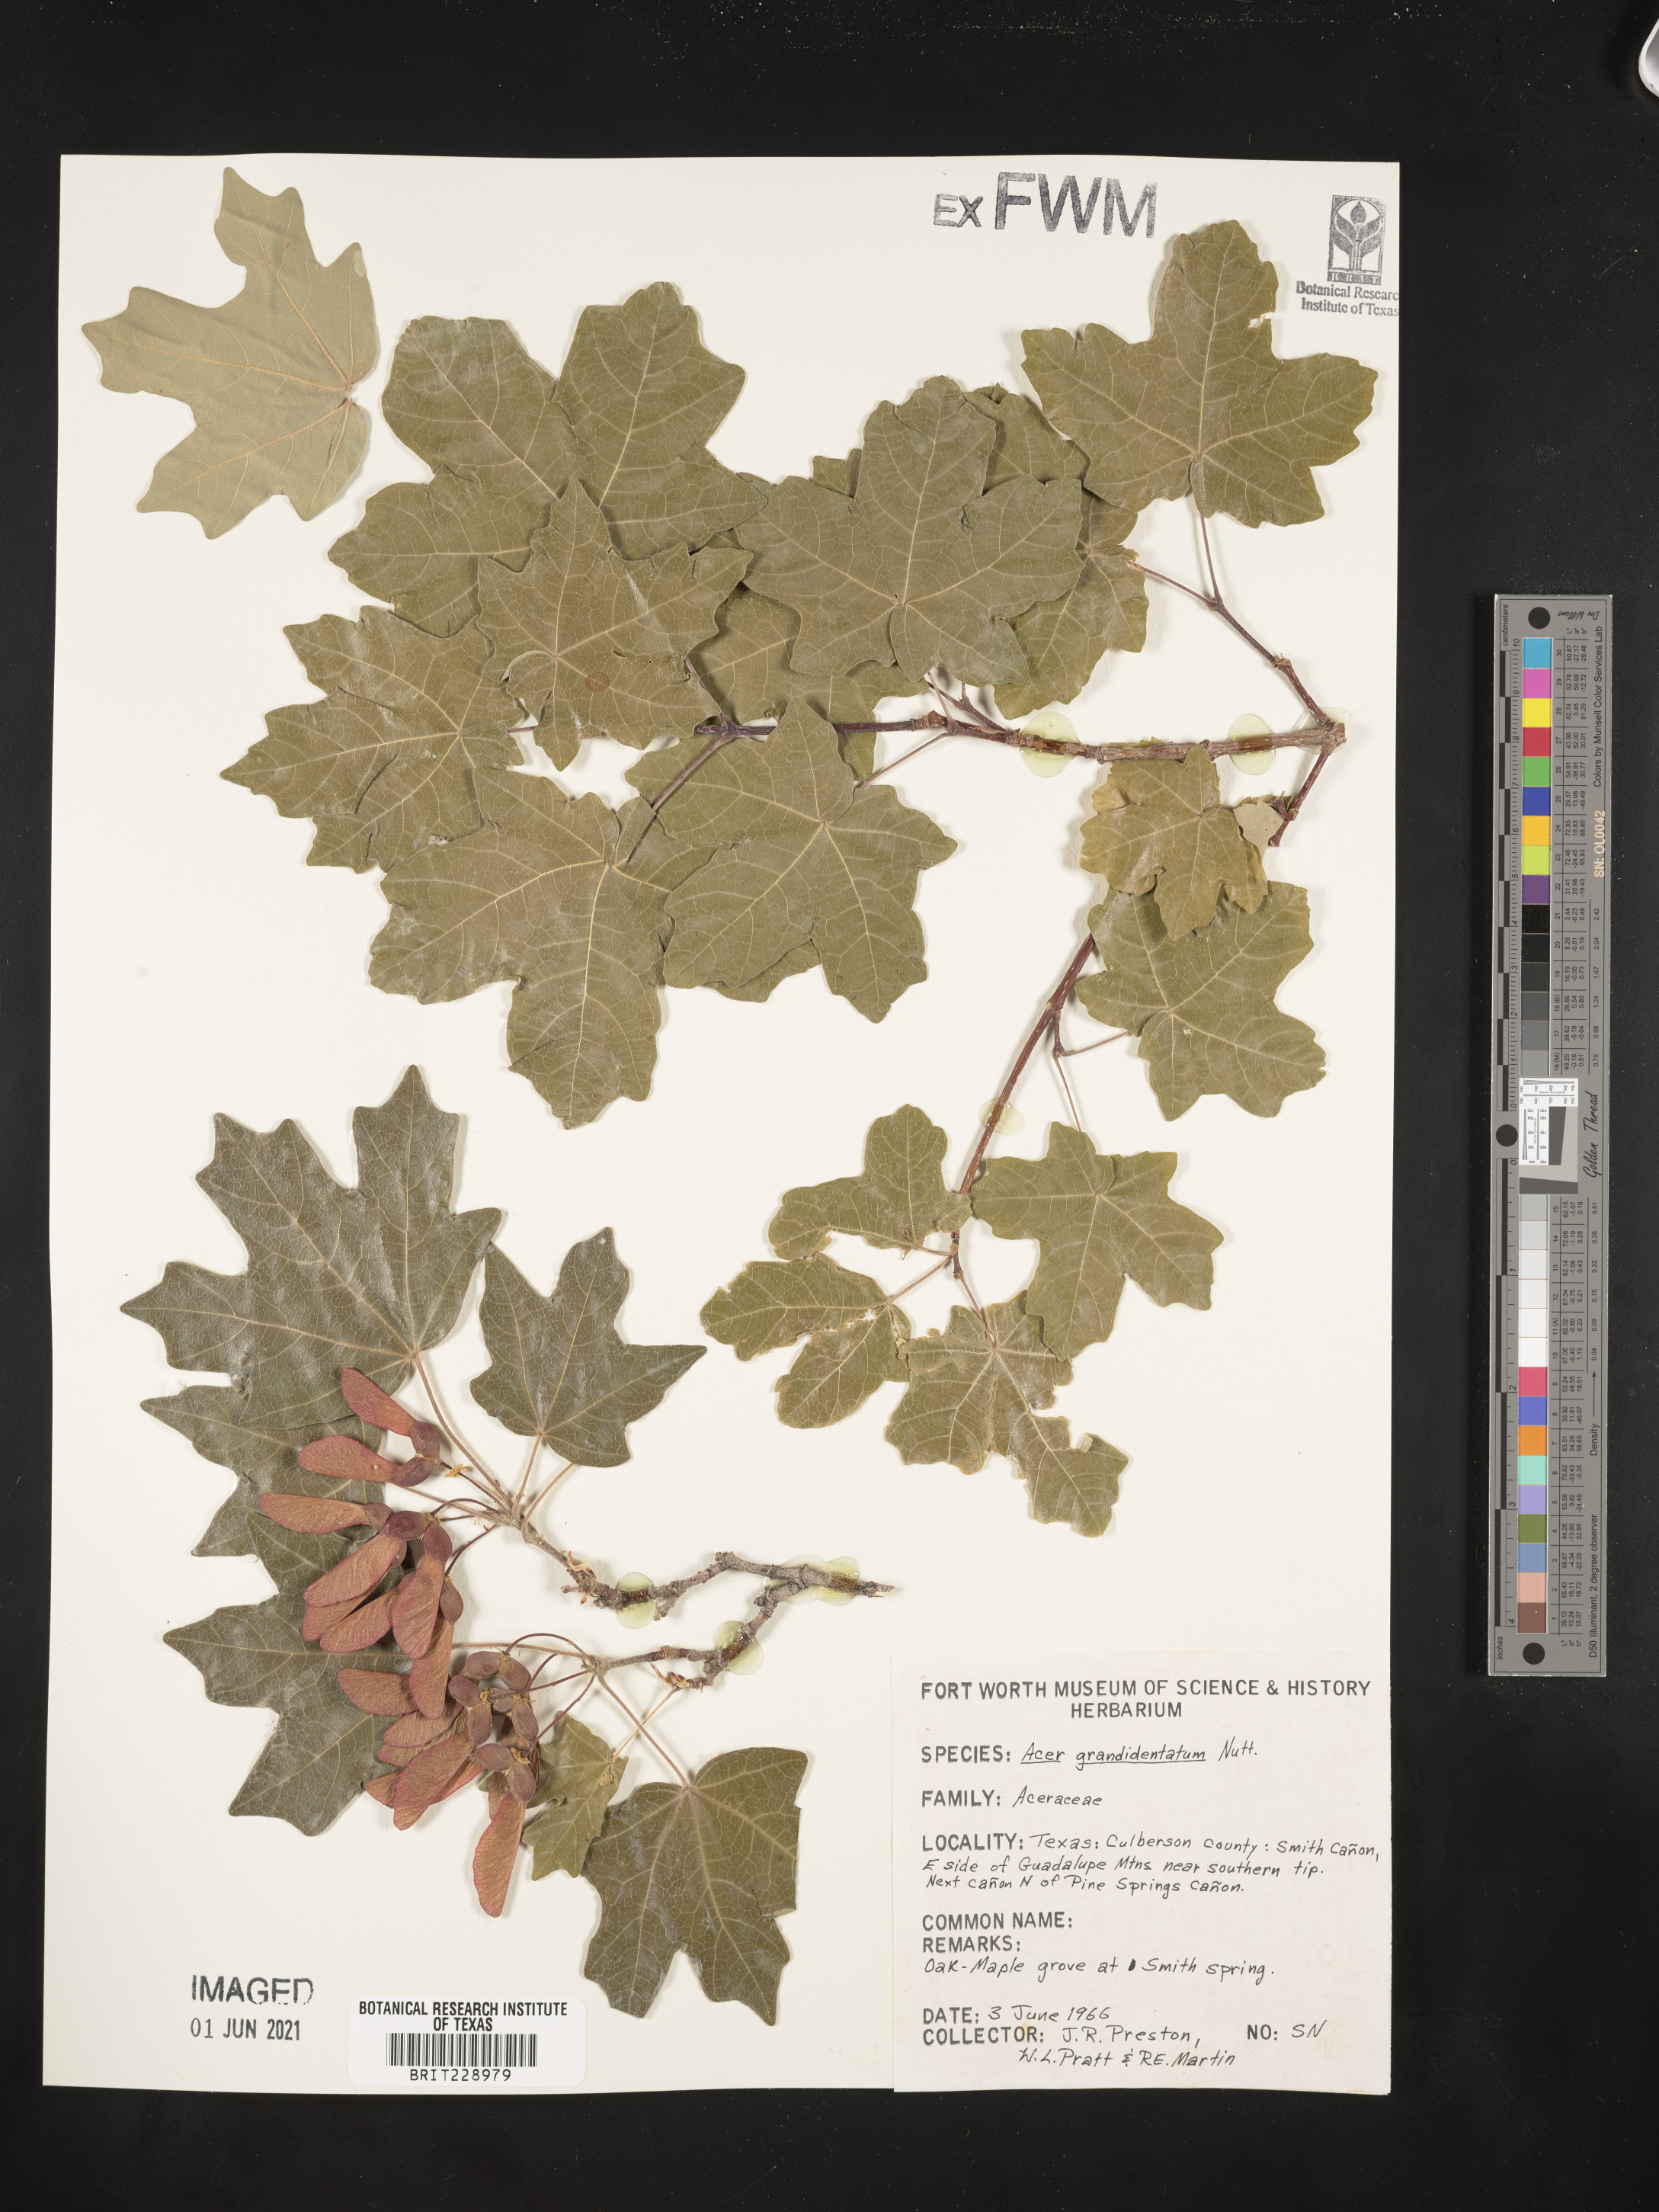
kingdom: Plantae
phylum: Tracheophyta
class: Magnoliopsida
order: Sapindales
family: Sapindaceae
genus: Acer
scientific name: Acer grandidentatum
